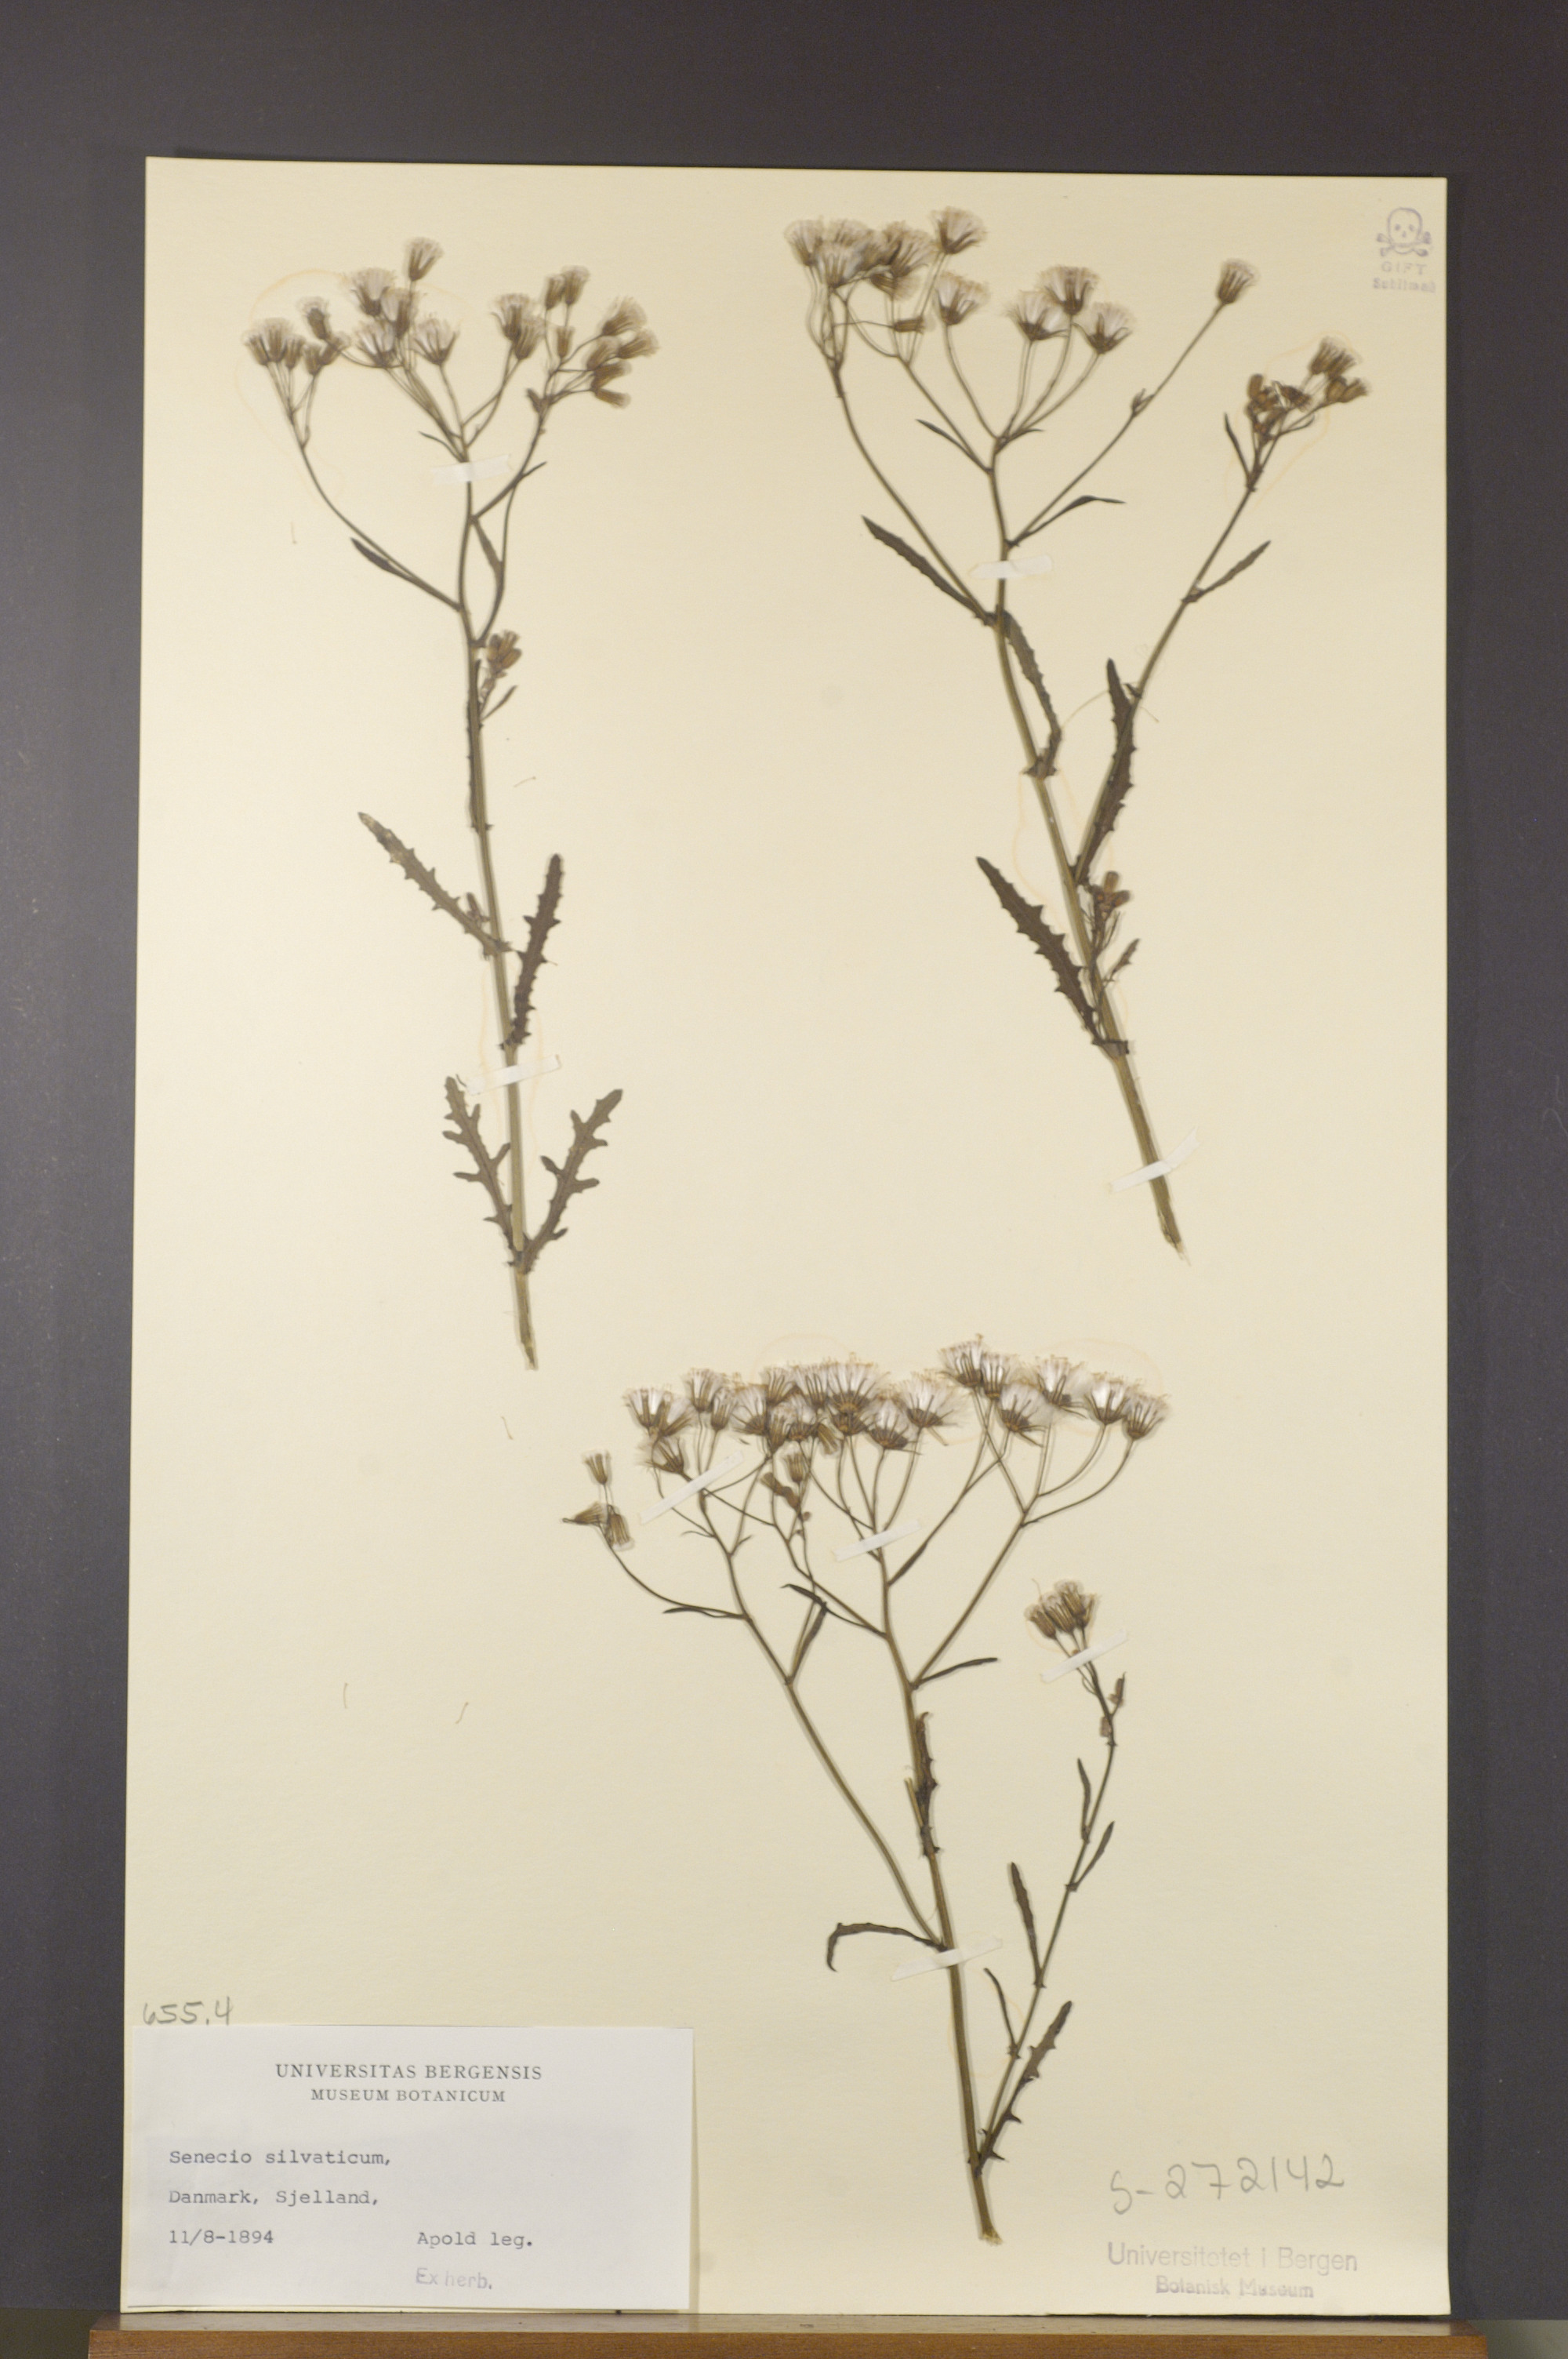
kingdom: Plantae
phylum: Tracheophyta
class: Magnoliopsida
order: Asterales
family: Asteraceae
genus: Senecio
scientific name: Senecio sylvaticus
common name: Woodland ragwort
